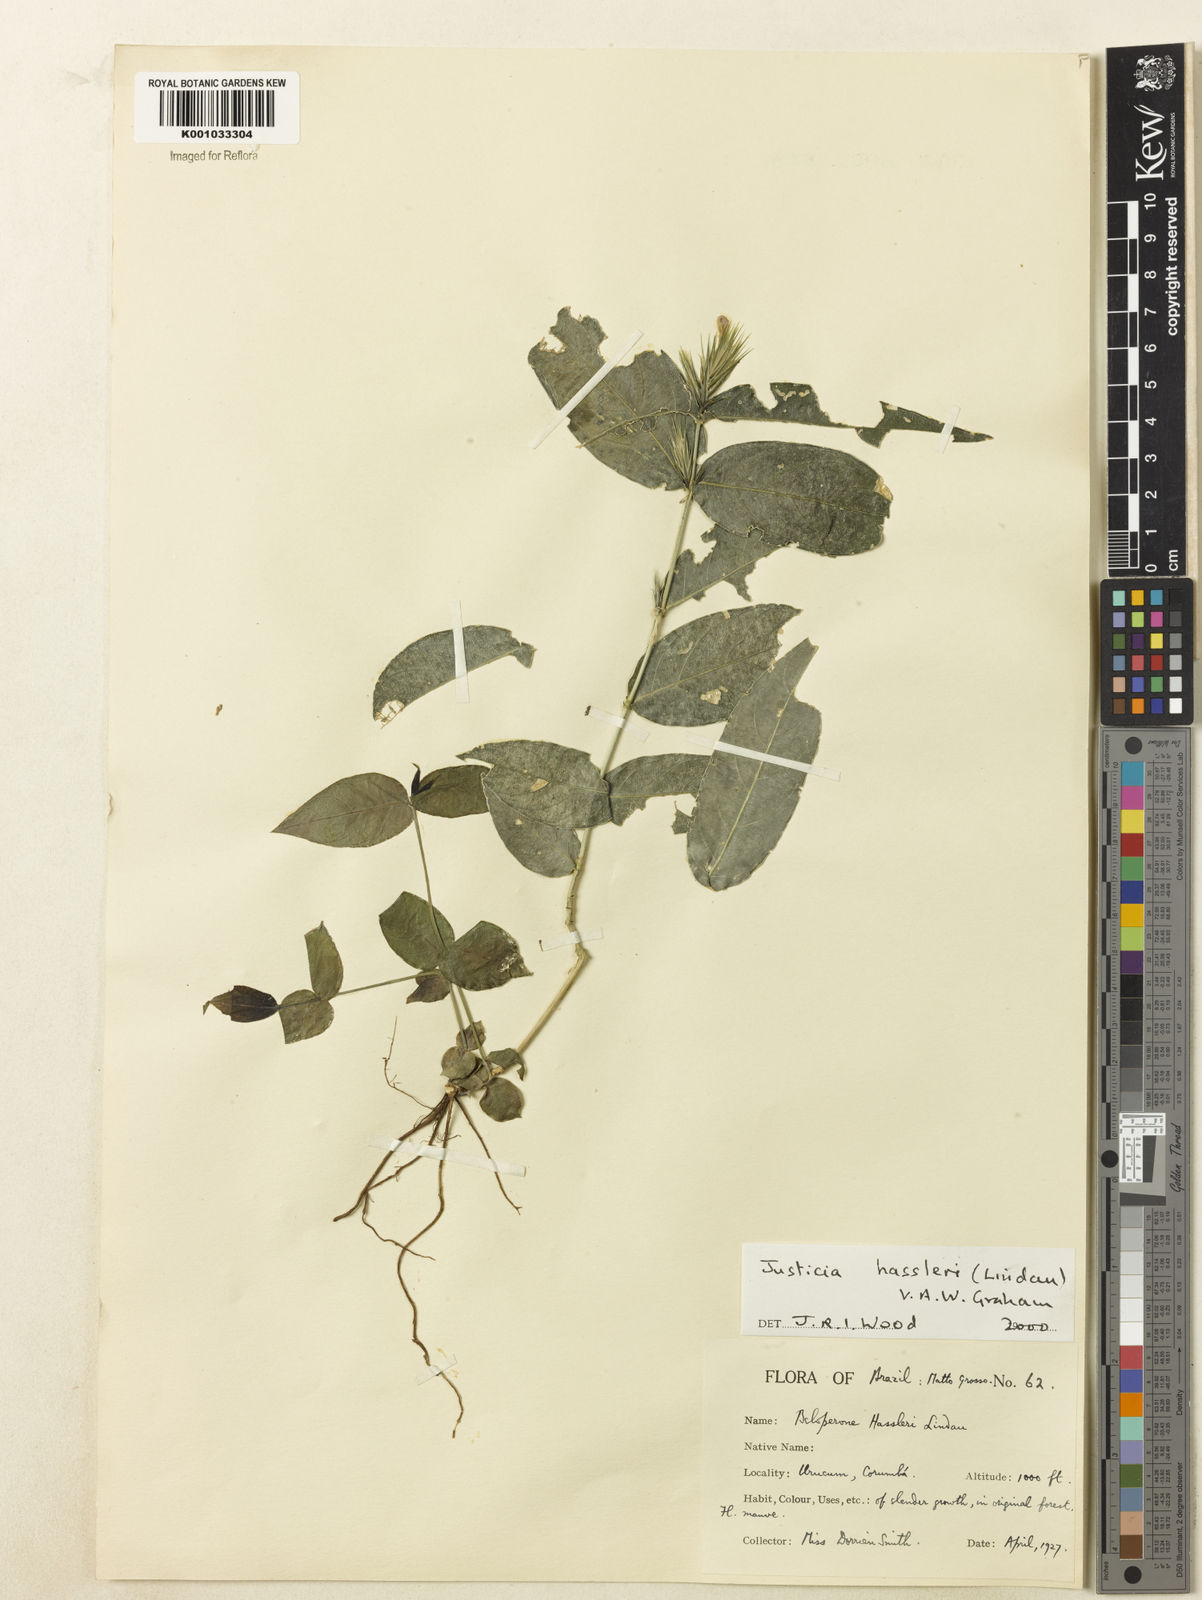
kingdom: Plantae
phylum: Tracheophyta
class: Magnoliopsida
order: Lamiales
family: Acanthaceae
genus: Justicia
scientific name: Justicia hassleri
